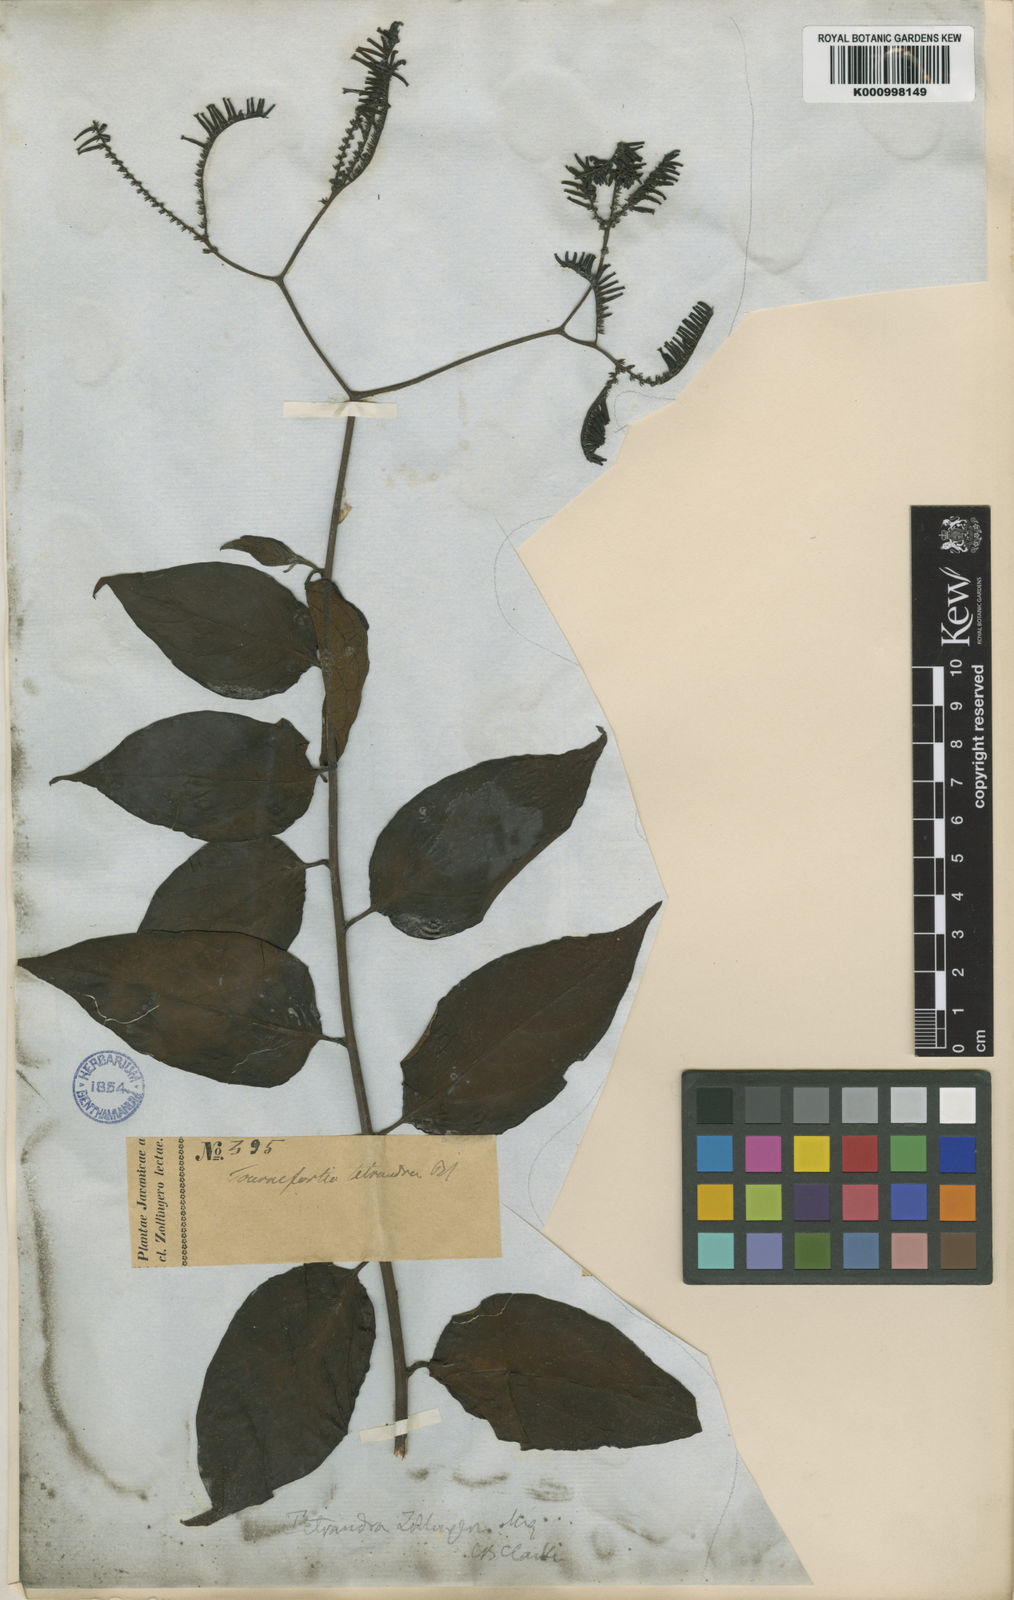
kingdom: Plantae
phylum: Tracheophyta
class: Magnoliopsida
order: Boraginales
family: Heliotropiaceae
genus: Heliotropium
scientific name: Heliotropium biblianum
